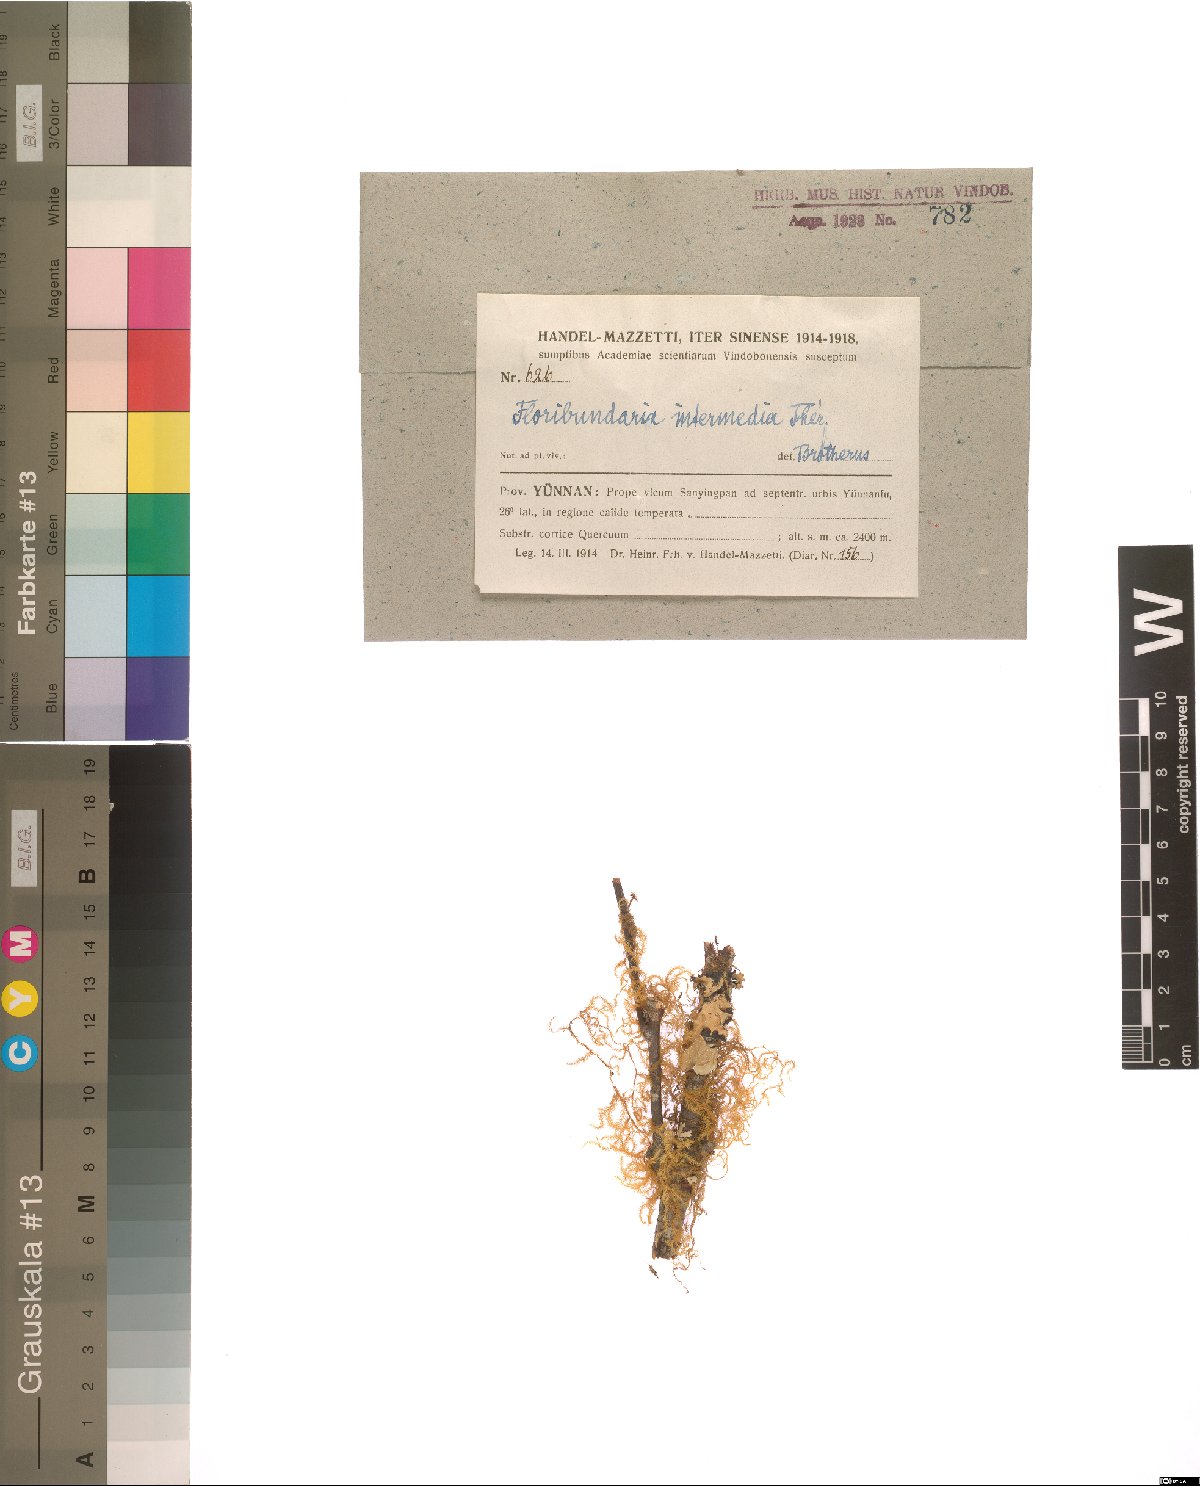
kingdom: Plantae
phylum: Bryophyta
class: Bryopsida
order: Hypnales
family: Meteoriaceae
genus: Floribundaria
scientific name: Floribundaria setschwanica
